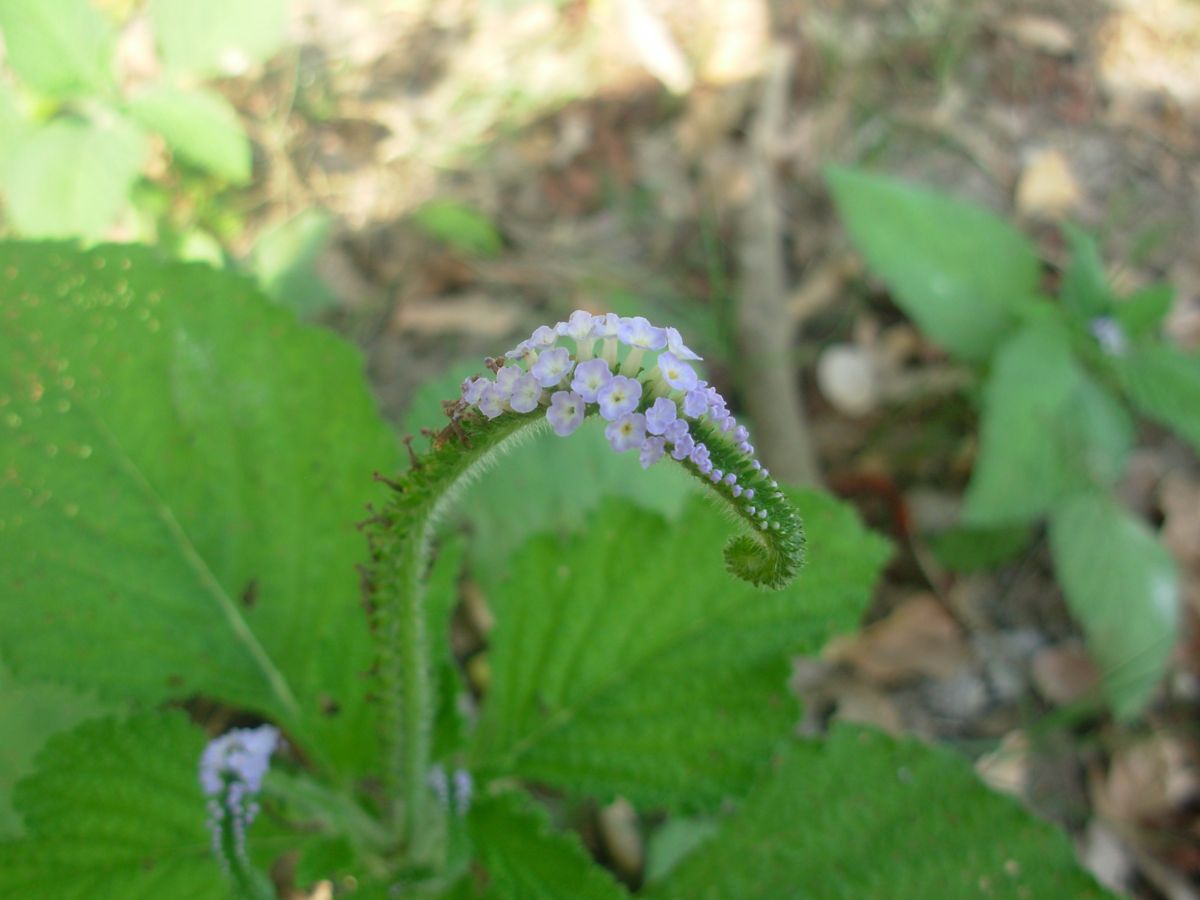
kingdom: Plantae
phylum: Tracheophyta
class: Magnoliopsida
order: Boraginales
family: Heliotropiaceae
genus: Heliotropium
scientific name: Heliotropium indicum
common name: Indian heliotrope
